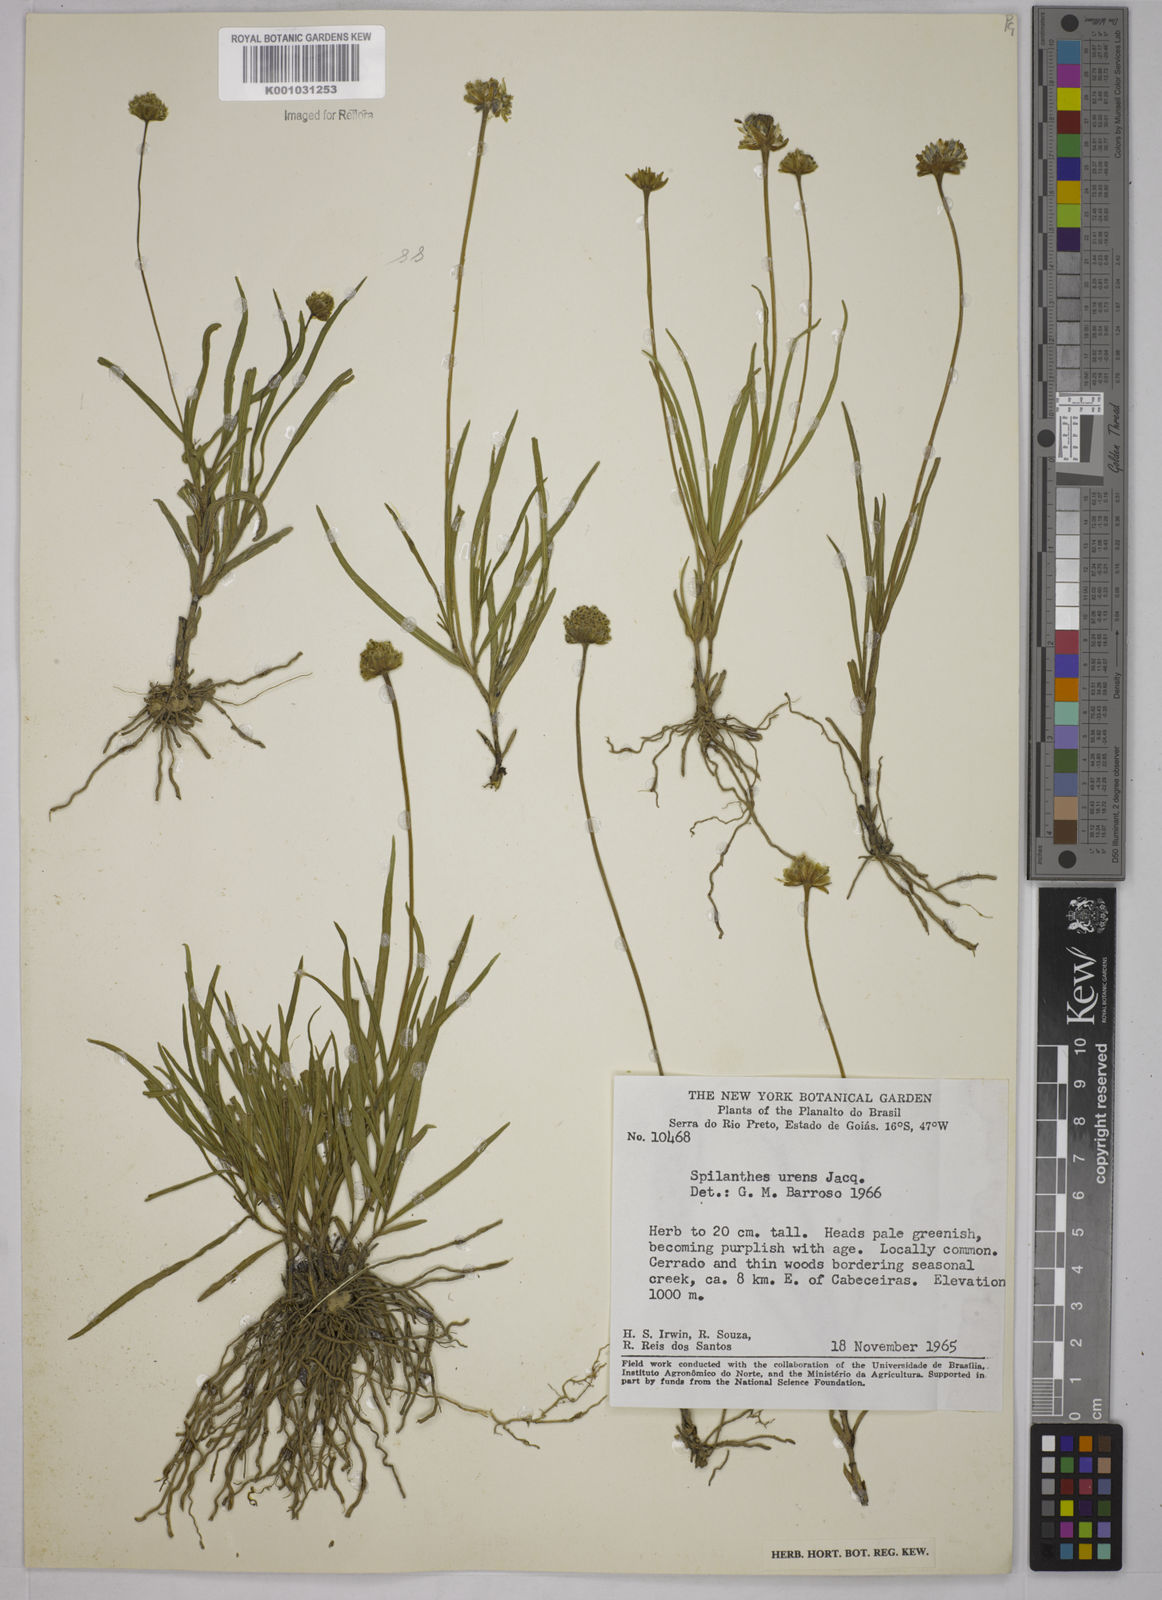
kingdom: Plantae
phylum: Tracheophyta
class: Magnoliopsida
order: Asterales
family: Asteraceae
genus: Spilanthes
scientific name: Spilanthes urens
